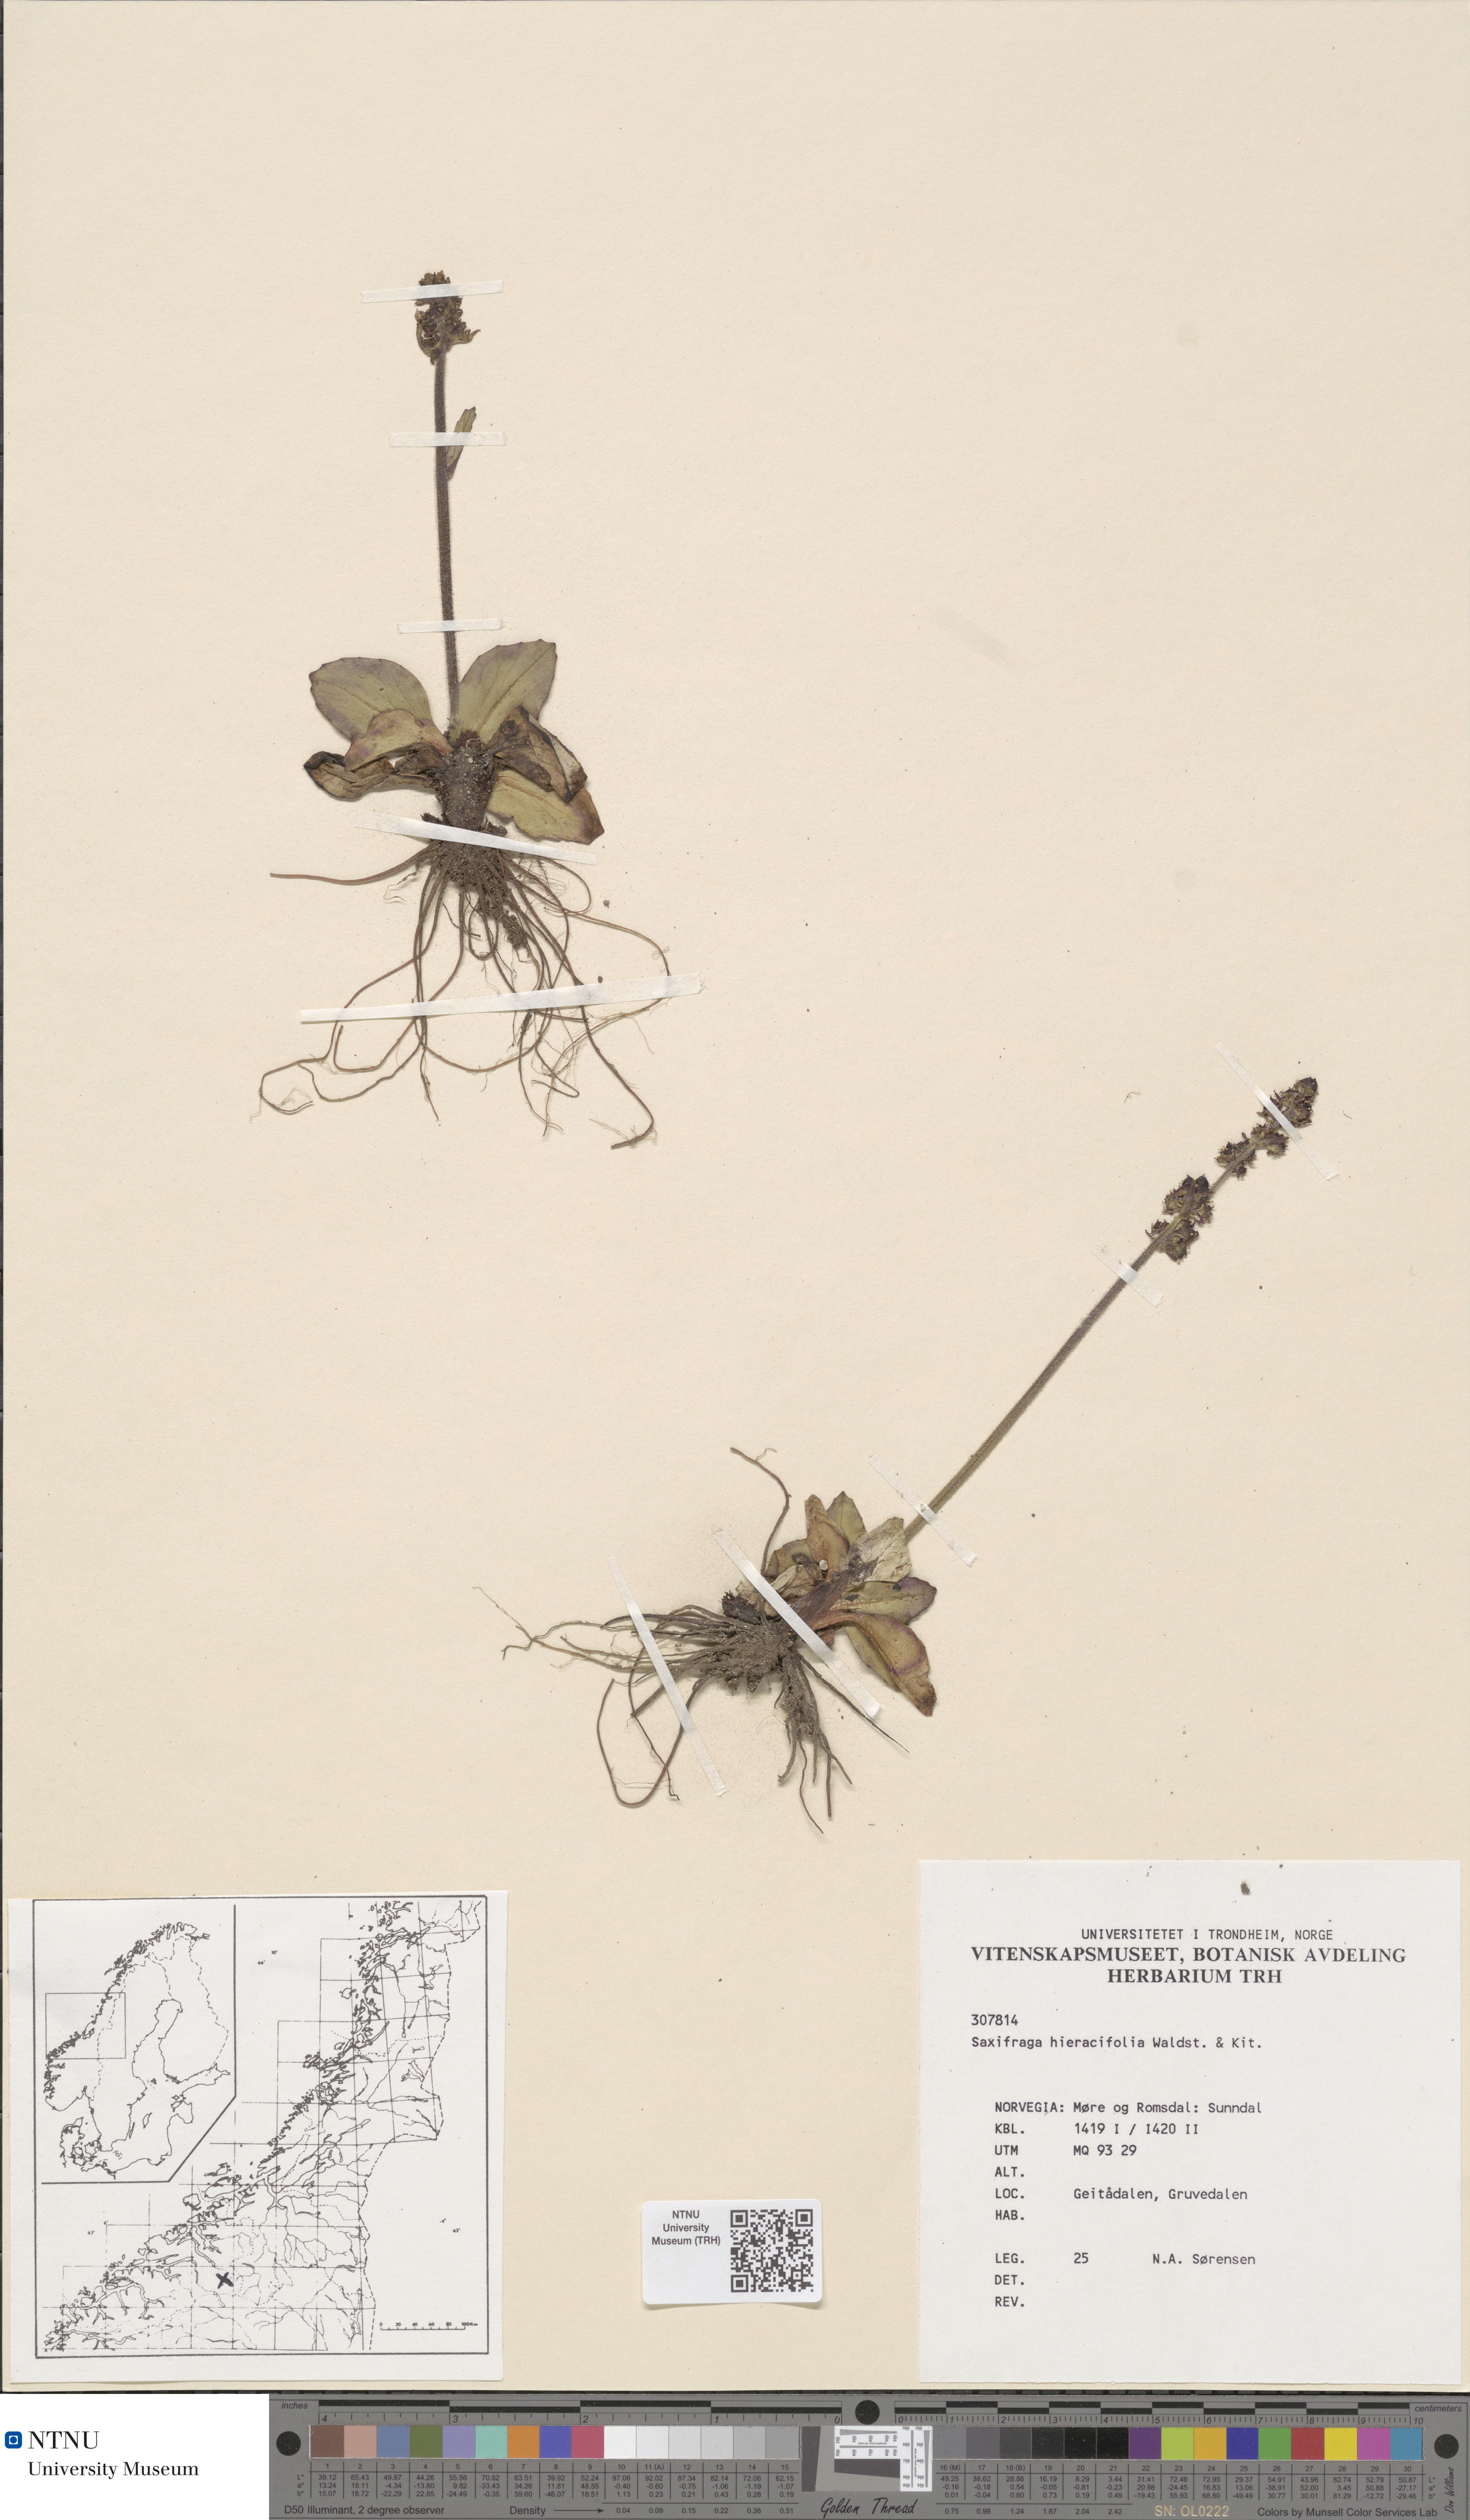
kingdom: Plantae
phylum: Tracheophyta
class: Magnoliopsida
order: Saxifragales
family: Saxifragaceae
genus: Micranthes
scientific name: Micranthes hieraciifolia
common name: Hawkweed-leaved saxifrage
